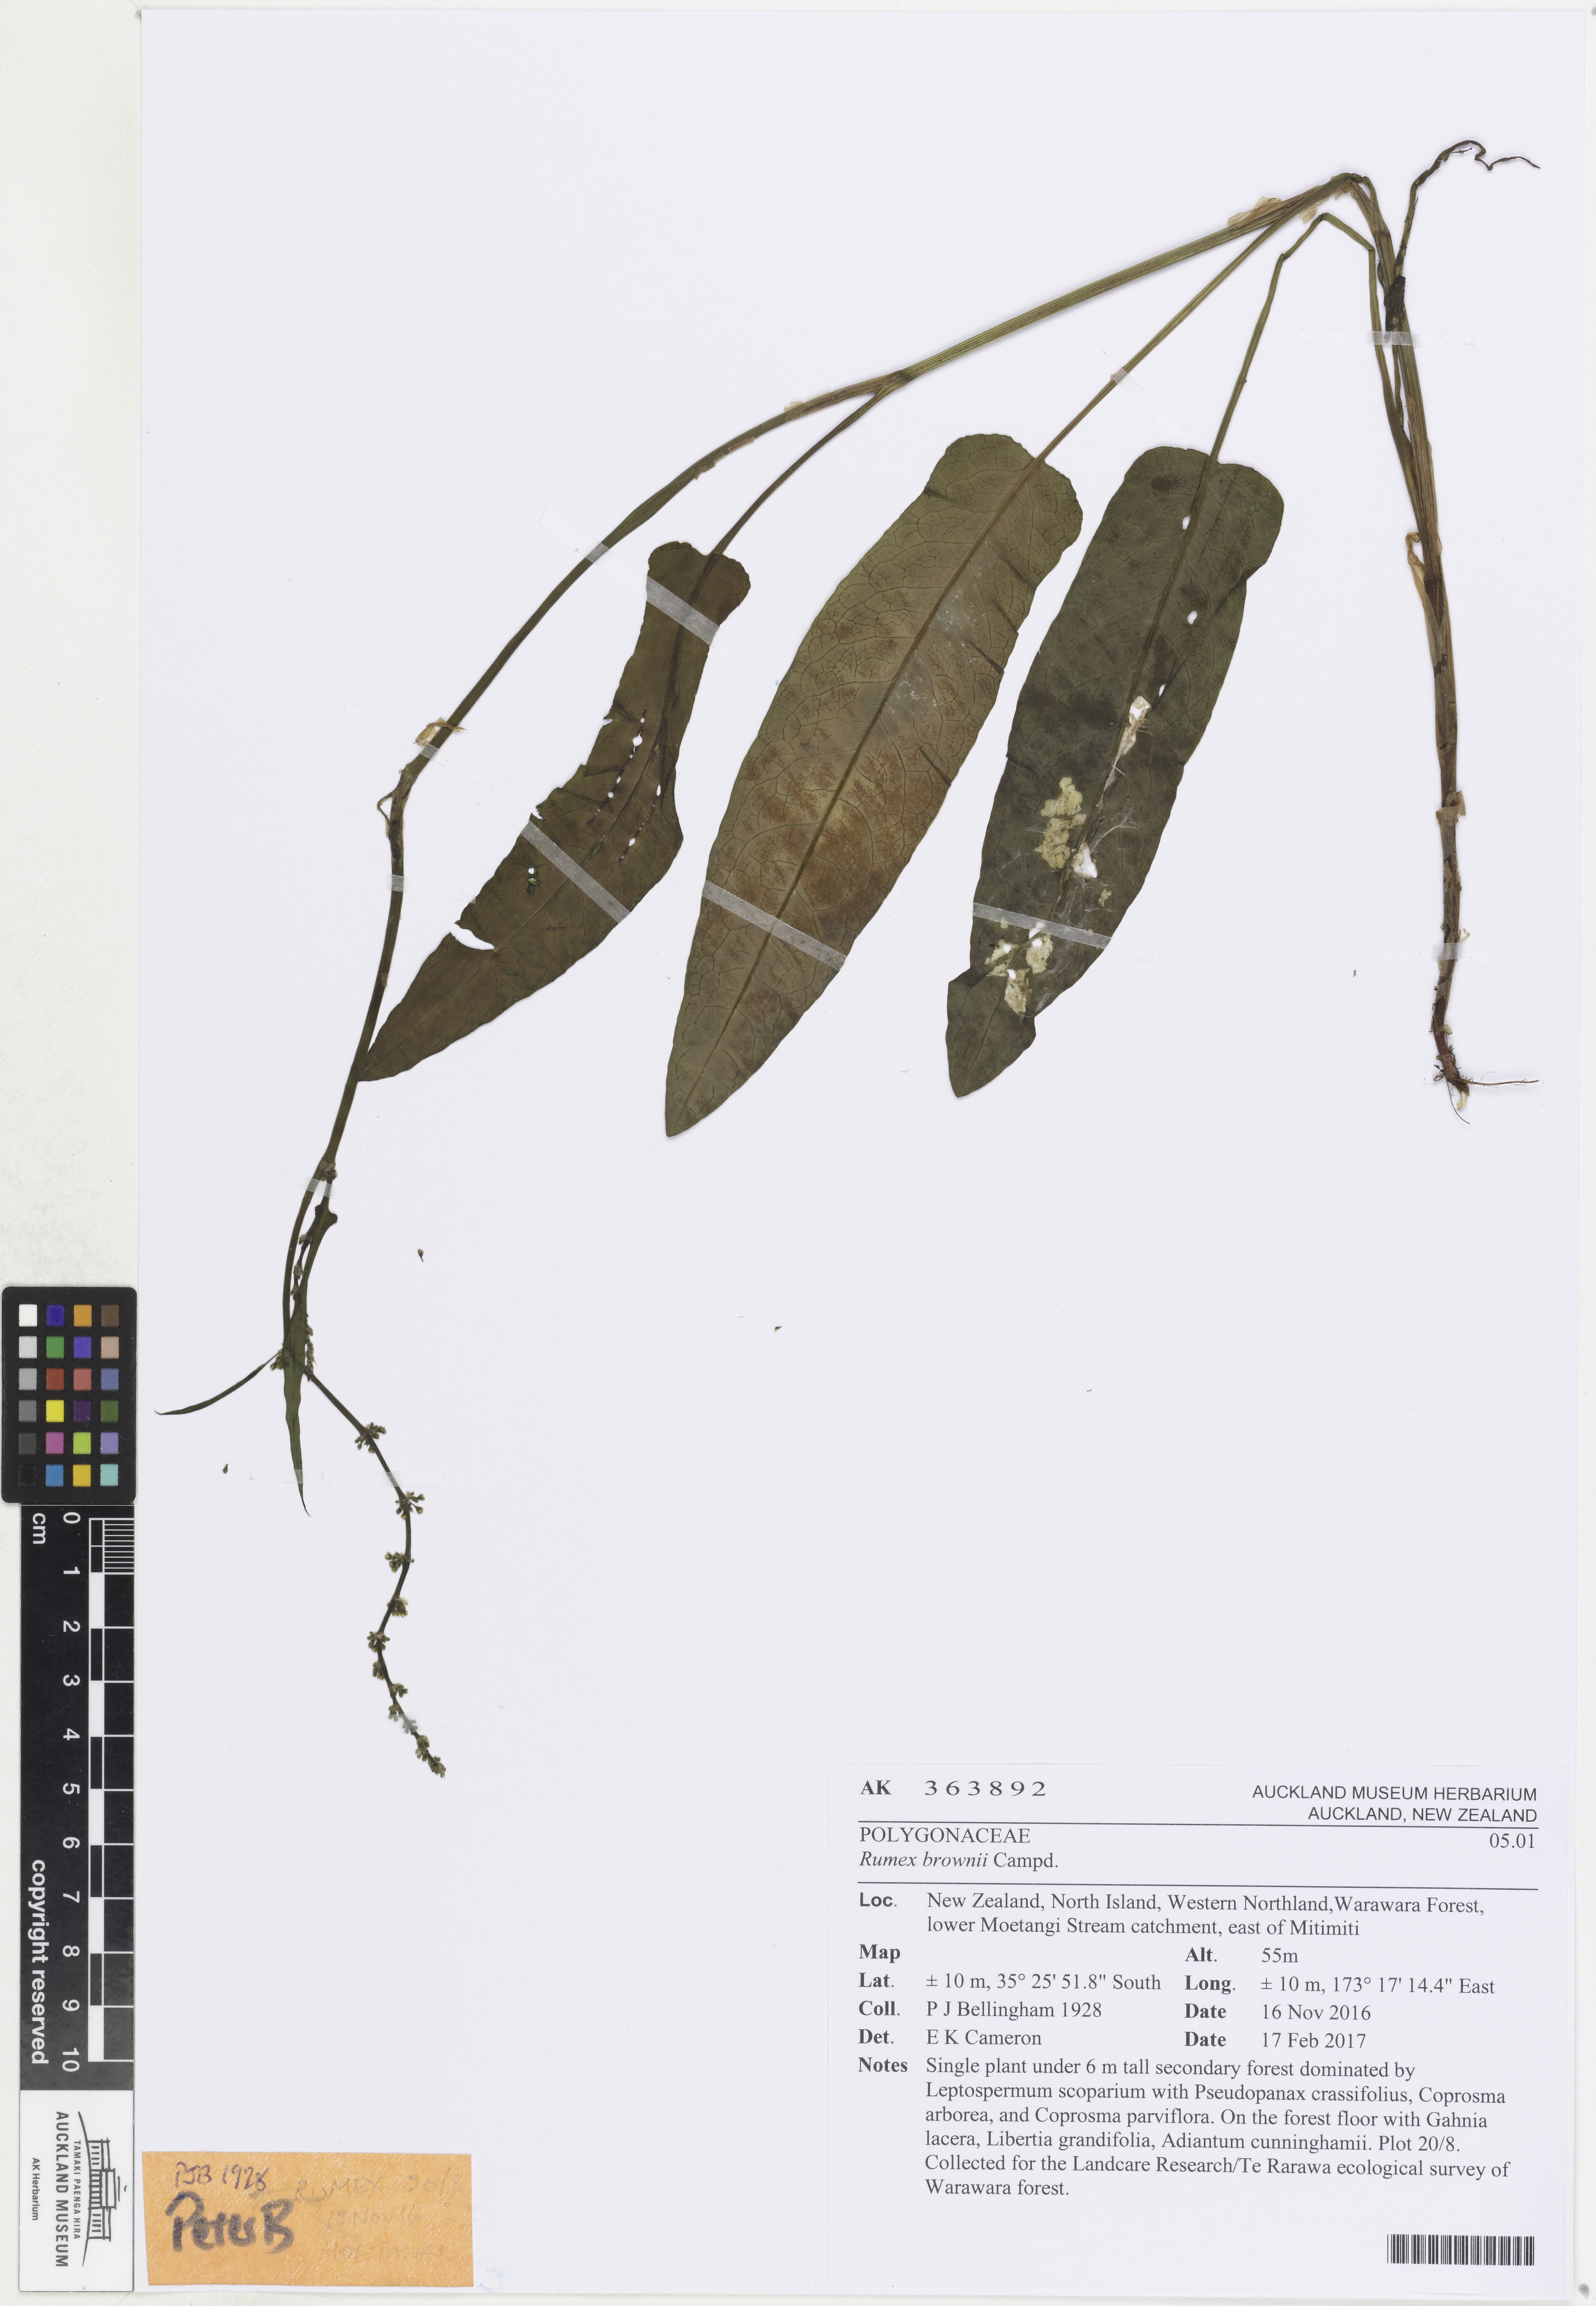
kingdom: Plantae
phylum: Tracheophyta
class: Magnoliopsida
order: Caryophyllales
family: Polygonaceae
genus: Rumex
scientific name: Rumex brownii
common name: Hooked dock
